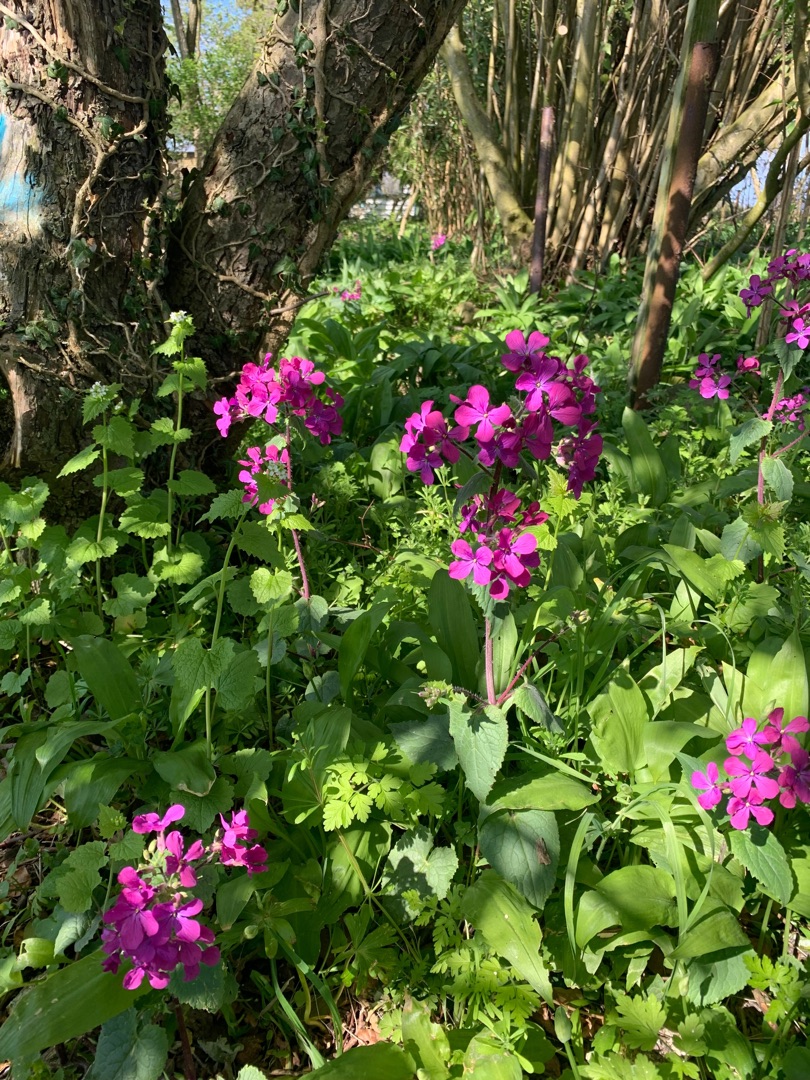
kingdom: Plantae
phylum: Tracheophyta
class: Magnoliopsida
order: Brassicales
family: Brassicaceae
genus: Lunaria
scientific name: Lunaria annua
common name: Judaspenge
